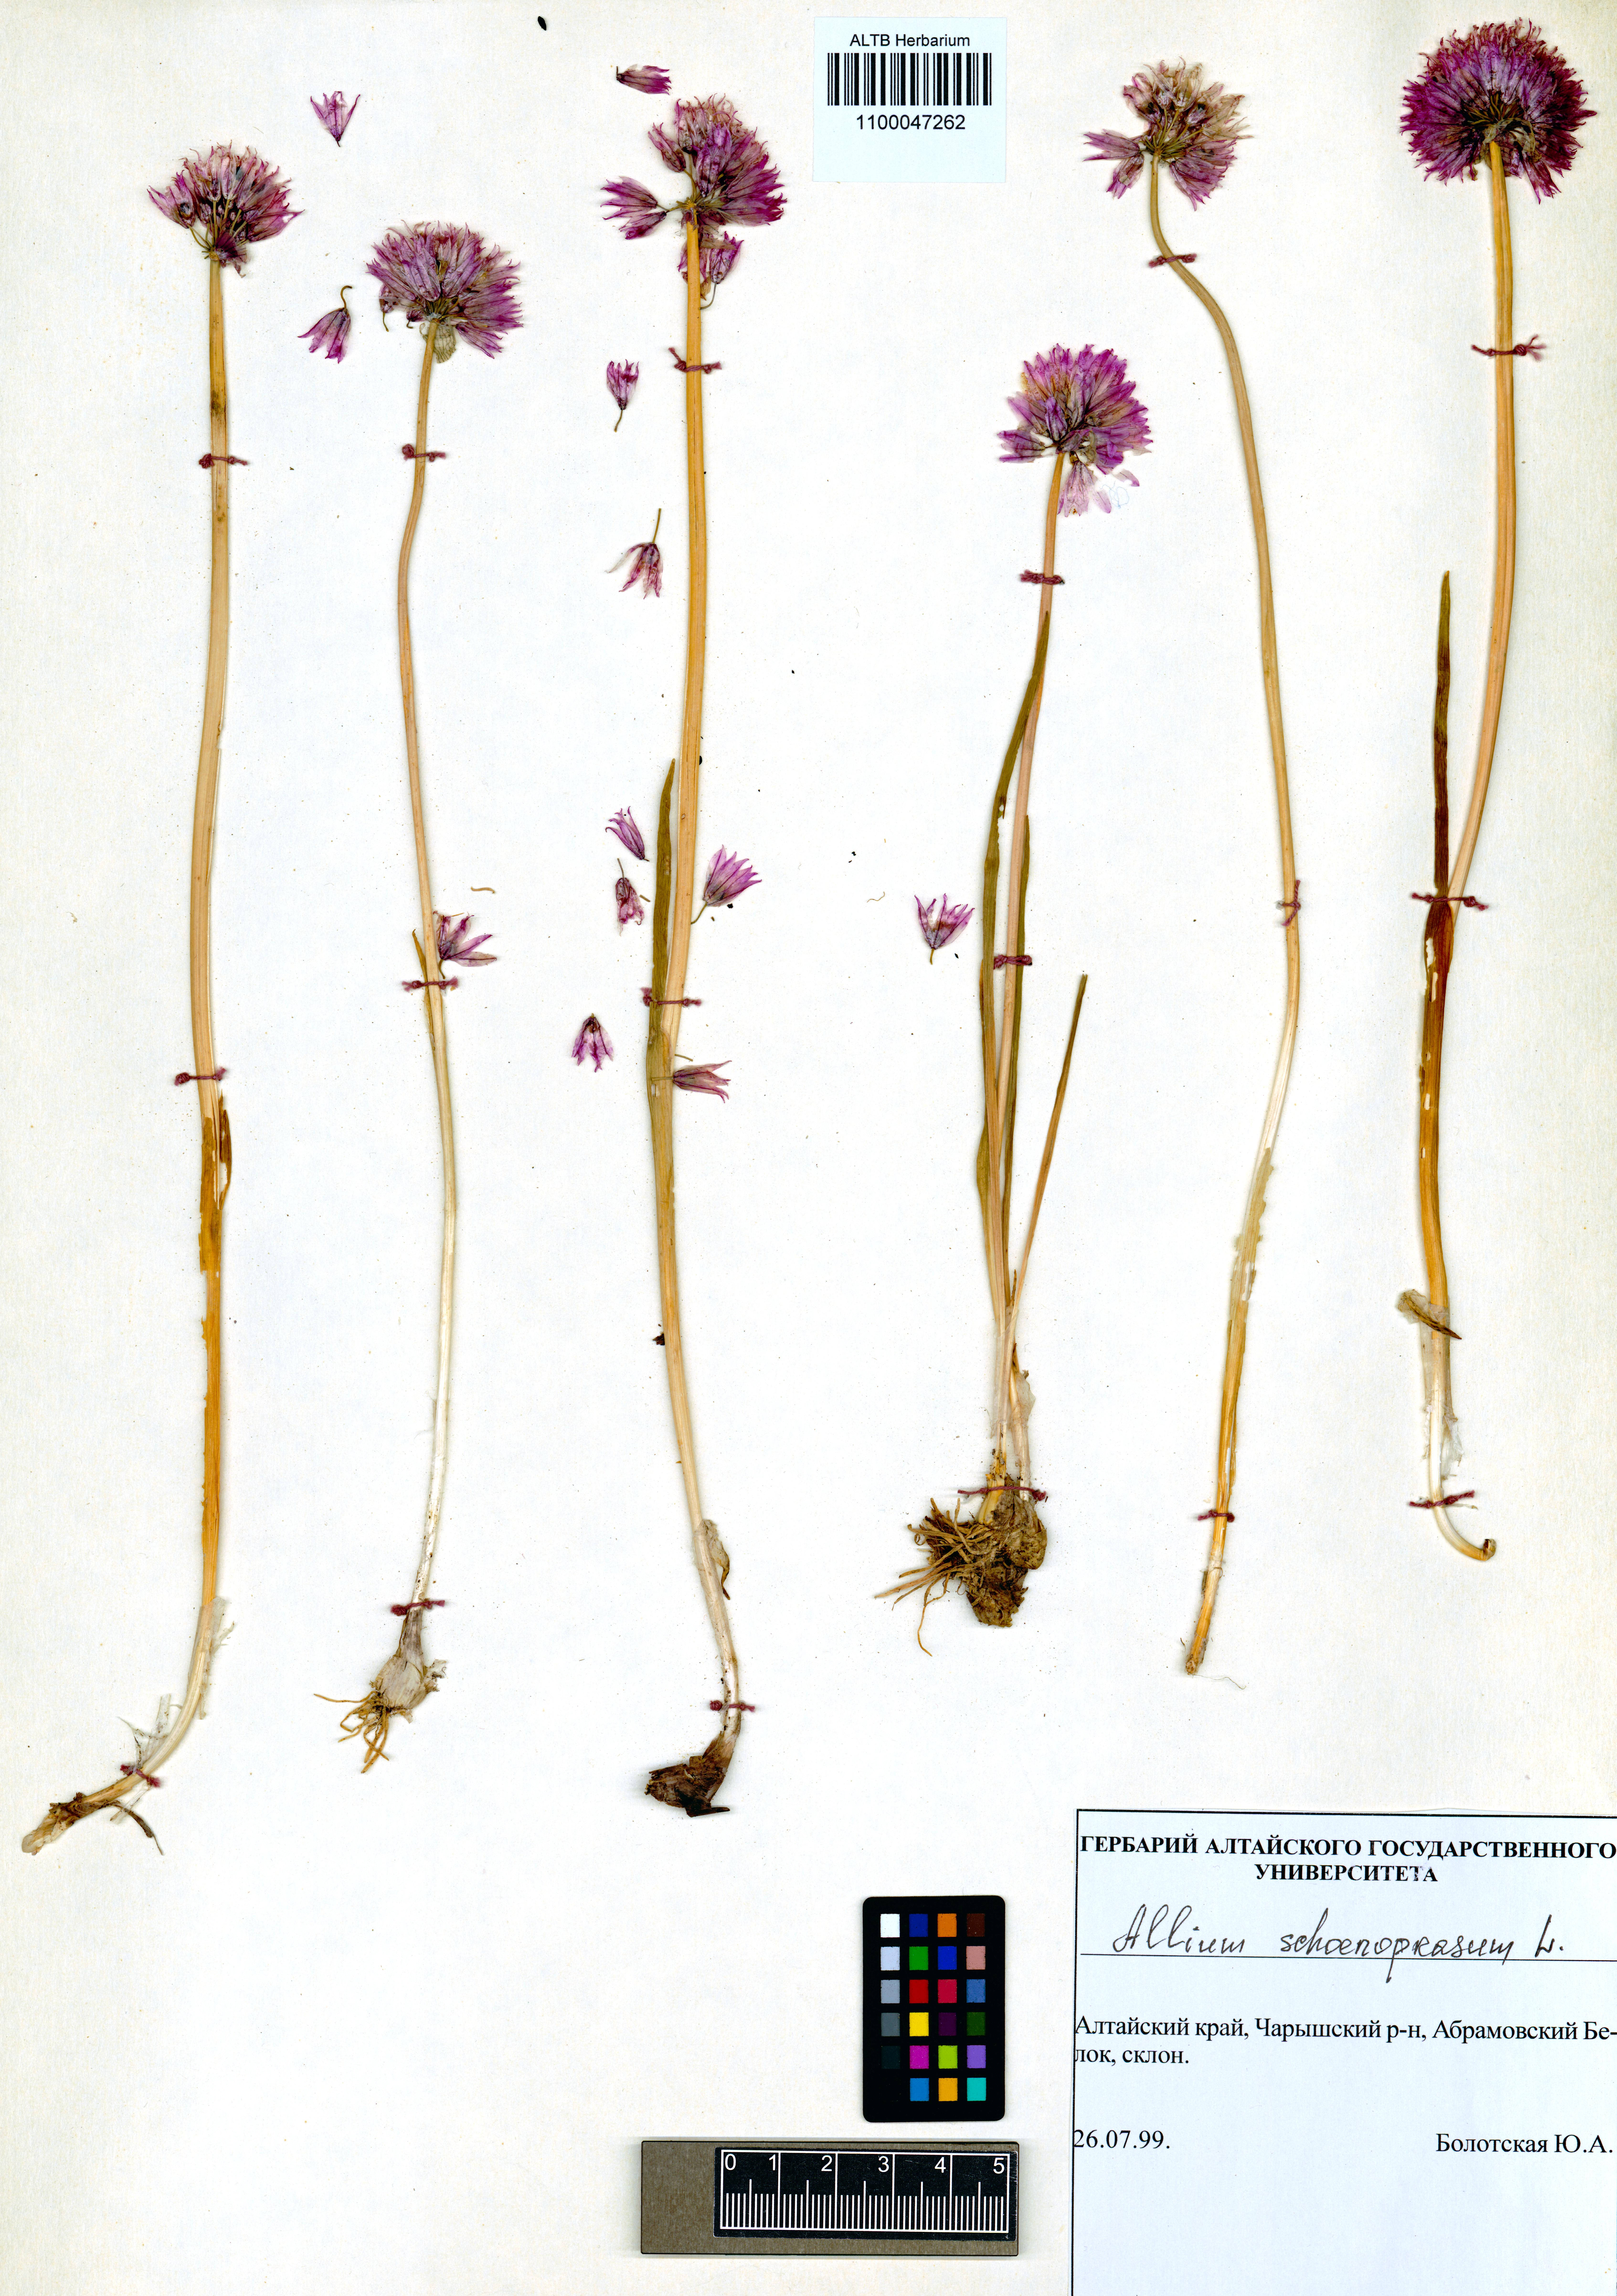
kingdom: Plantae
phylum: Tracheophyta
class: Liliopsida
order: Asparagales
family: Amaryllidaceae
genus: Allium
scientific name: Allium schoenoprasum
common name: Chives
